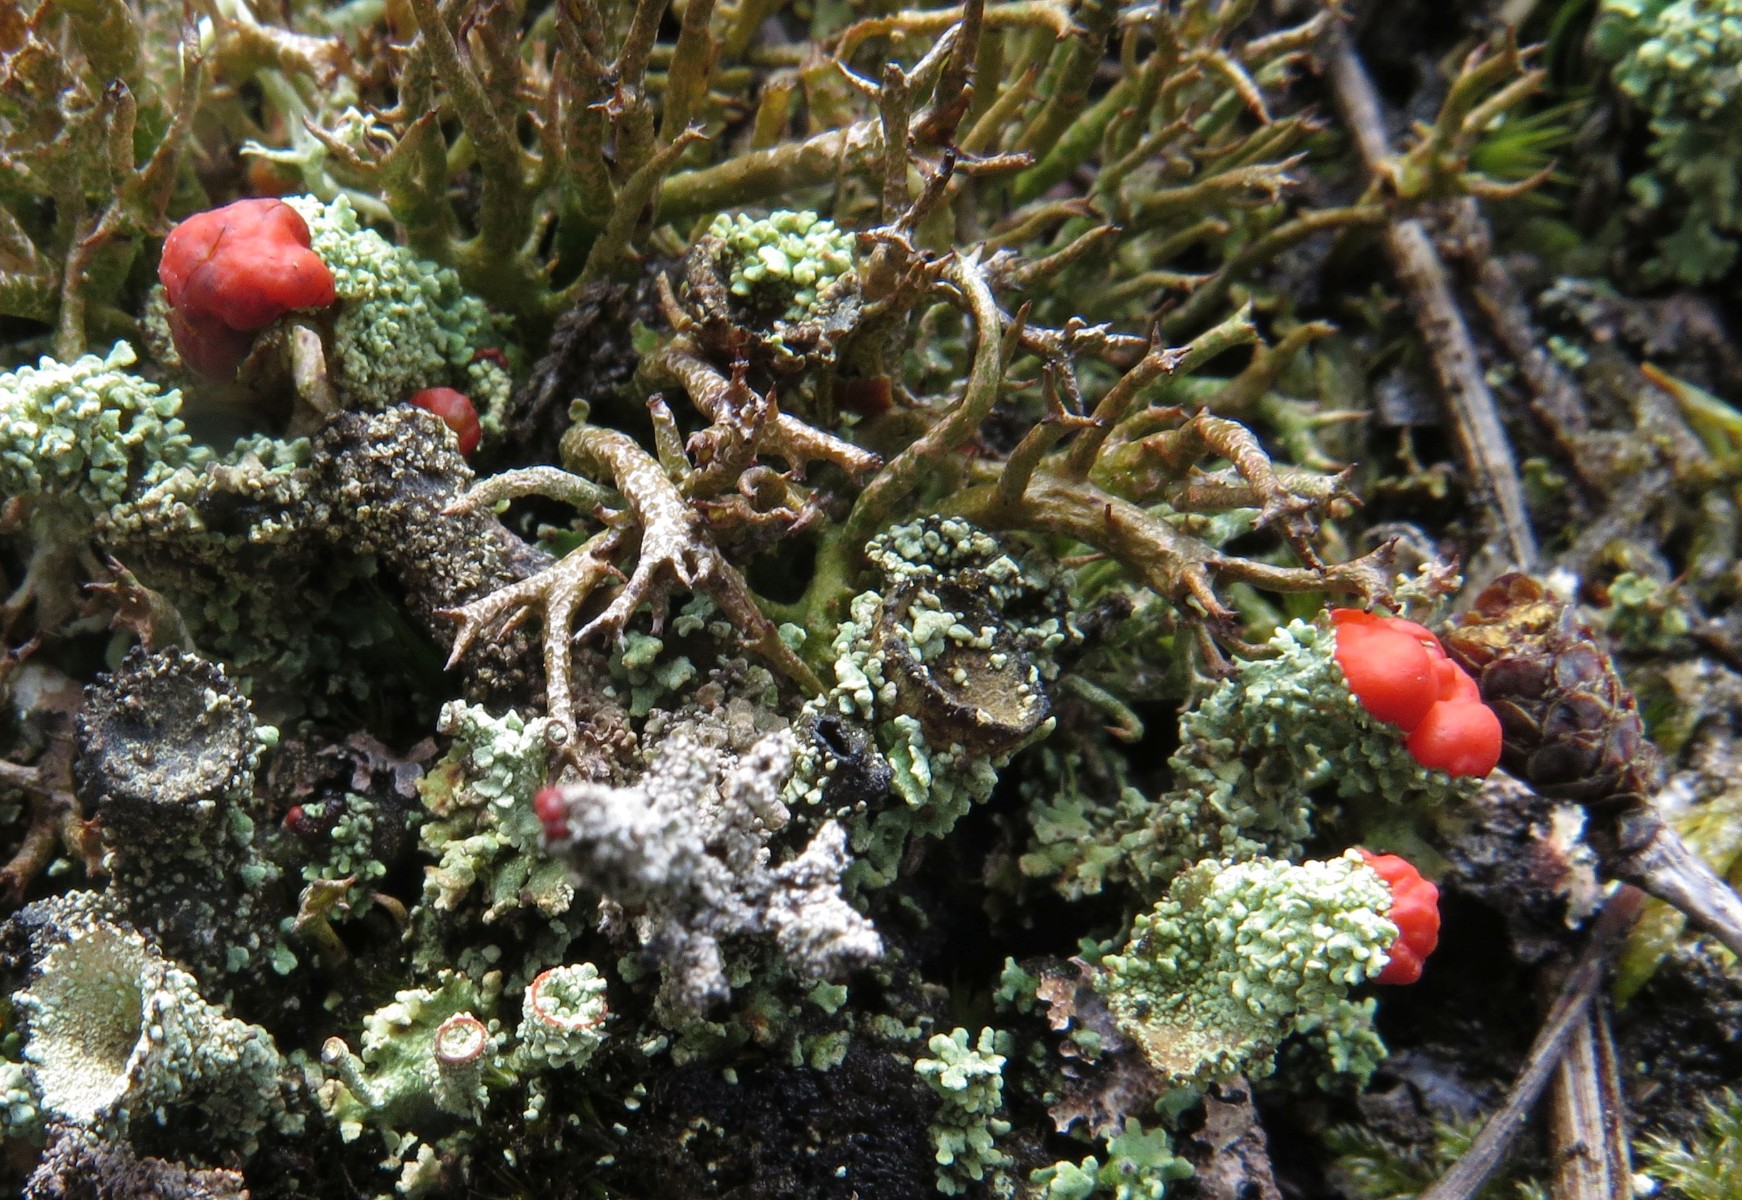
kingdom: Fungi
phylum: Ascomycota
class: Lecanoromycetes
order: Lecanorales
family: Cladoniaceae
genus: Cladonia
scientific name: Cladonia floerkeana
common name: lakrød bægerlav
